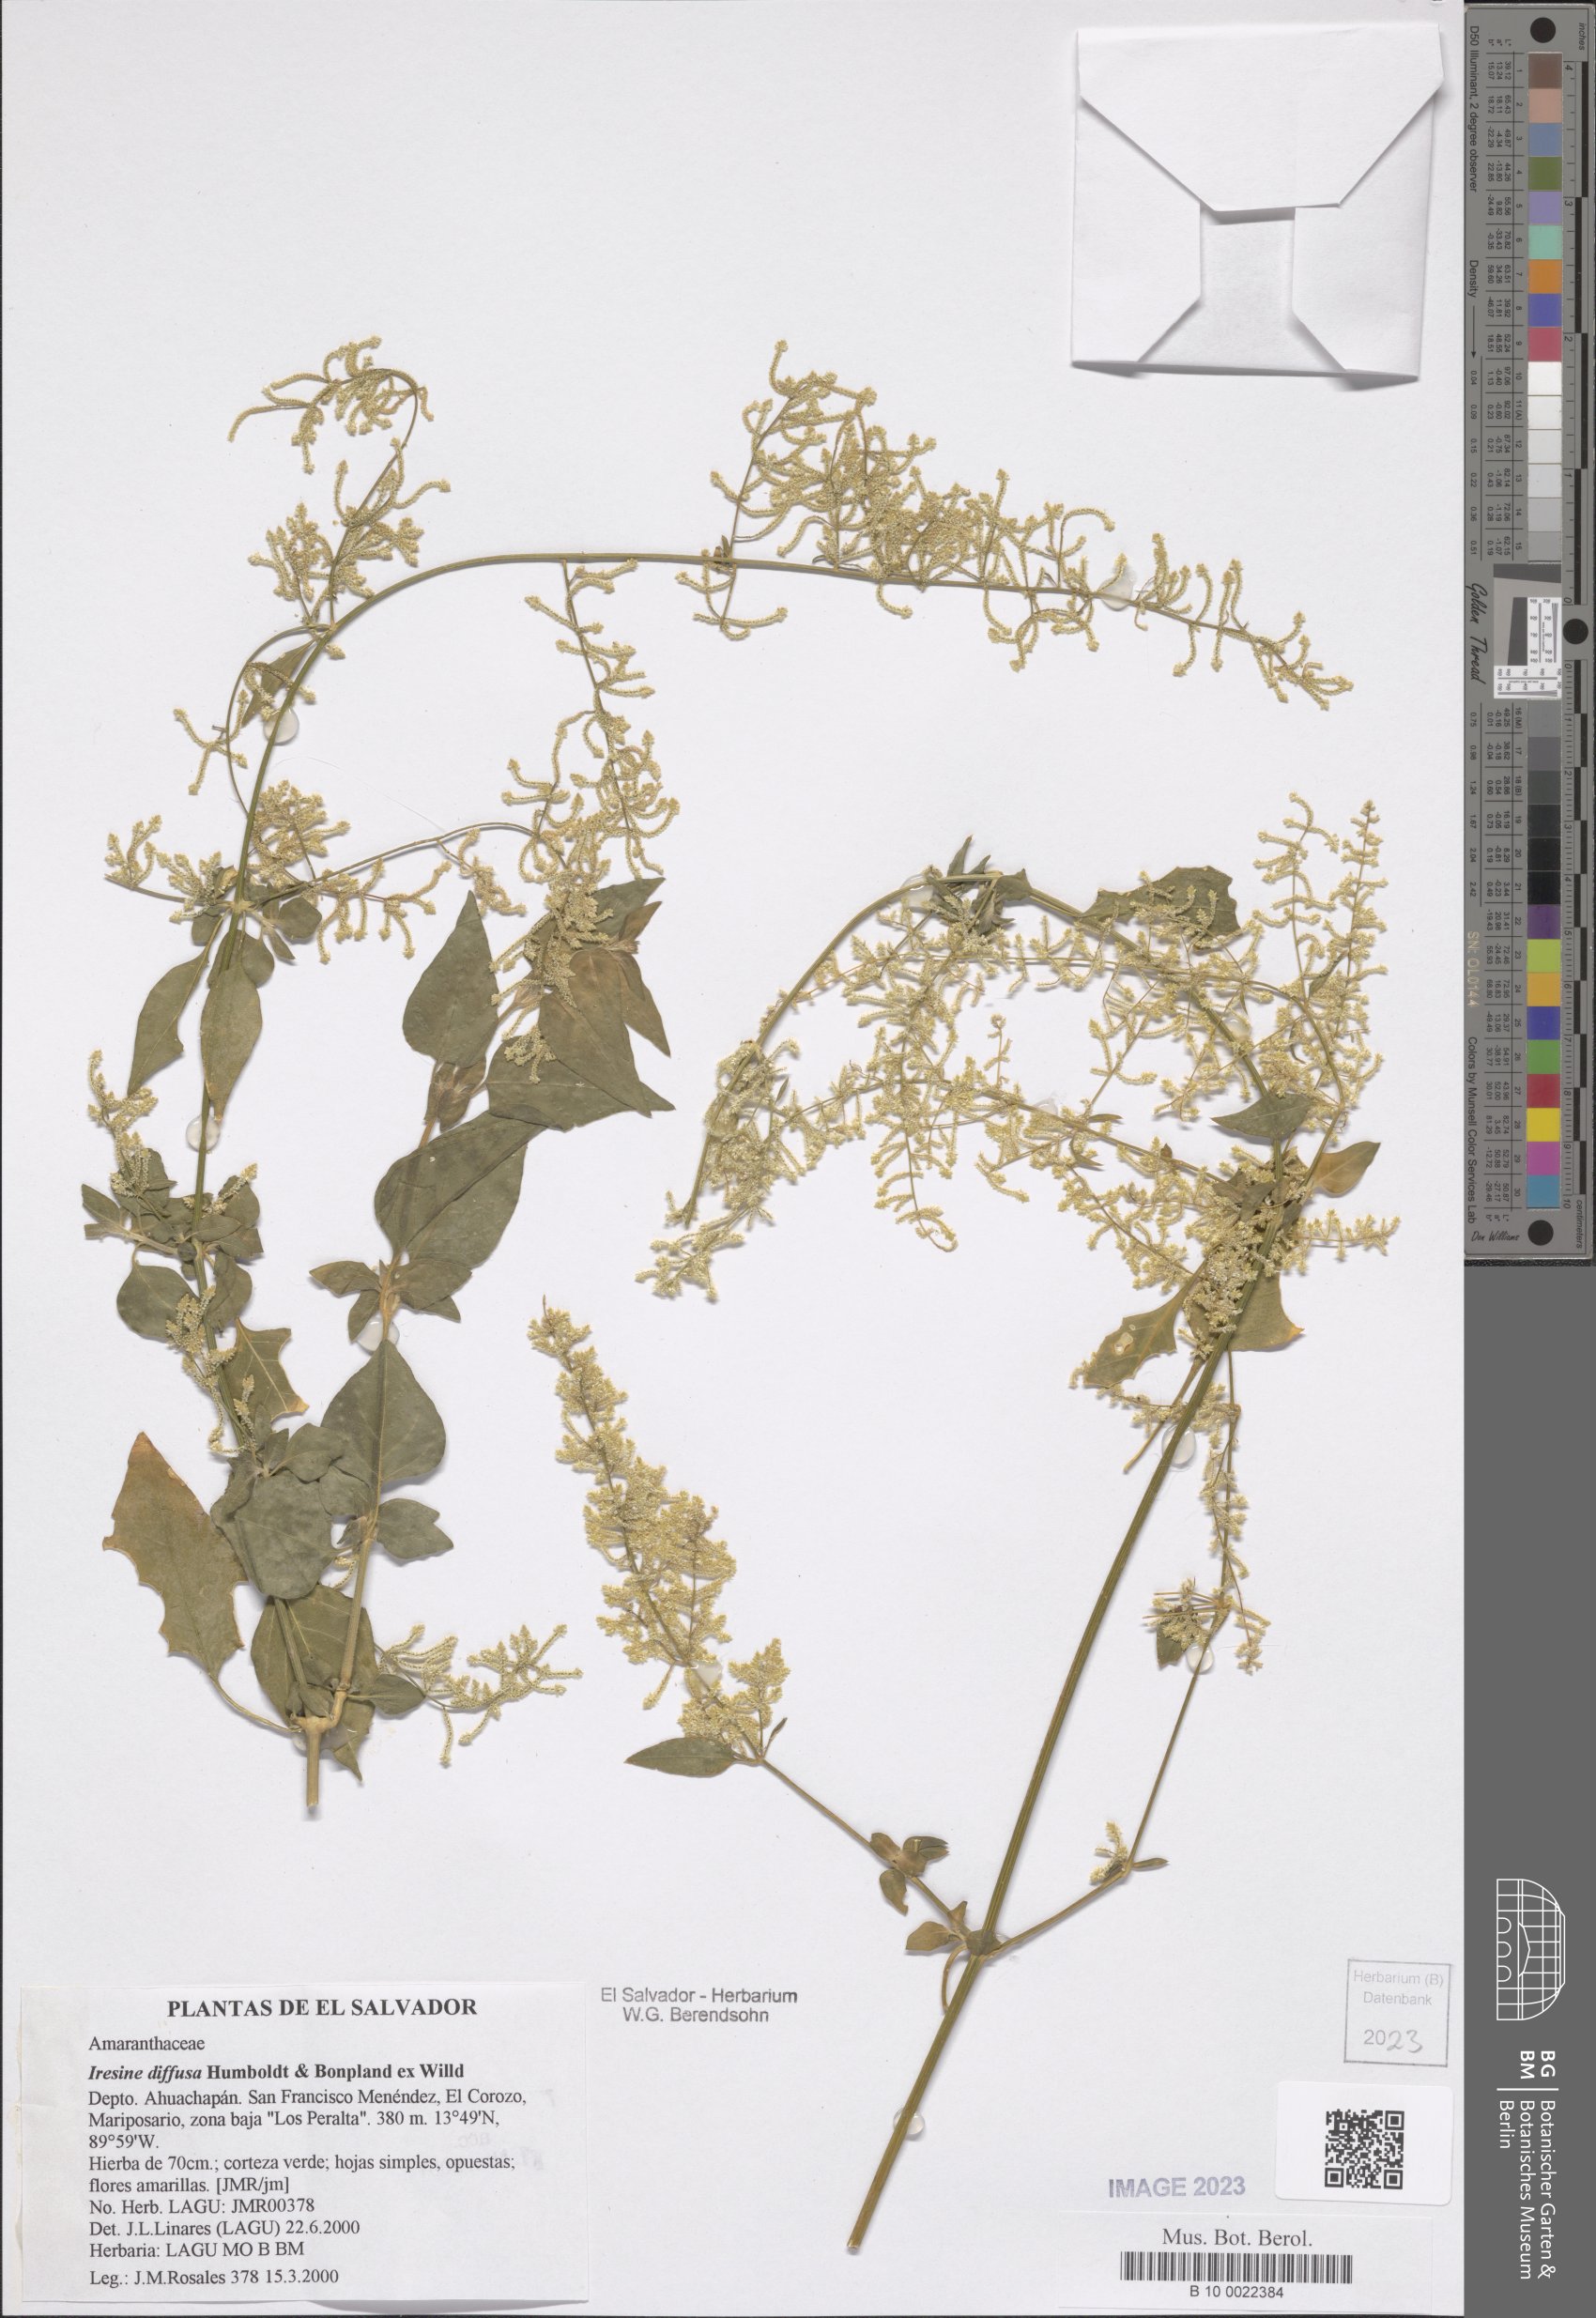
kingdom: Plantae
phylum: Tracheophyta
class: Magnoliopsida
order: Caryophyllales
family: Amaranthaceae
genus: Iresine
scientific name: Iresine diffusa
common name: Juba's-bush
